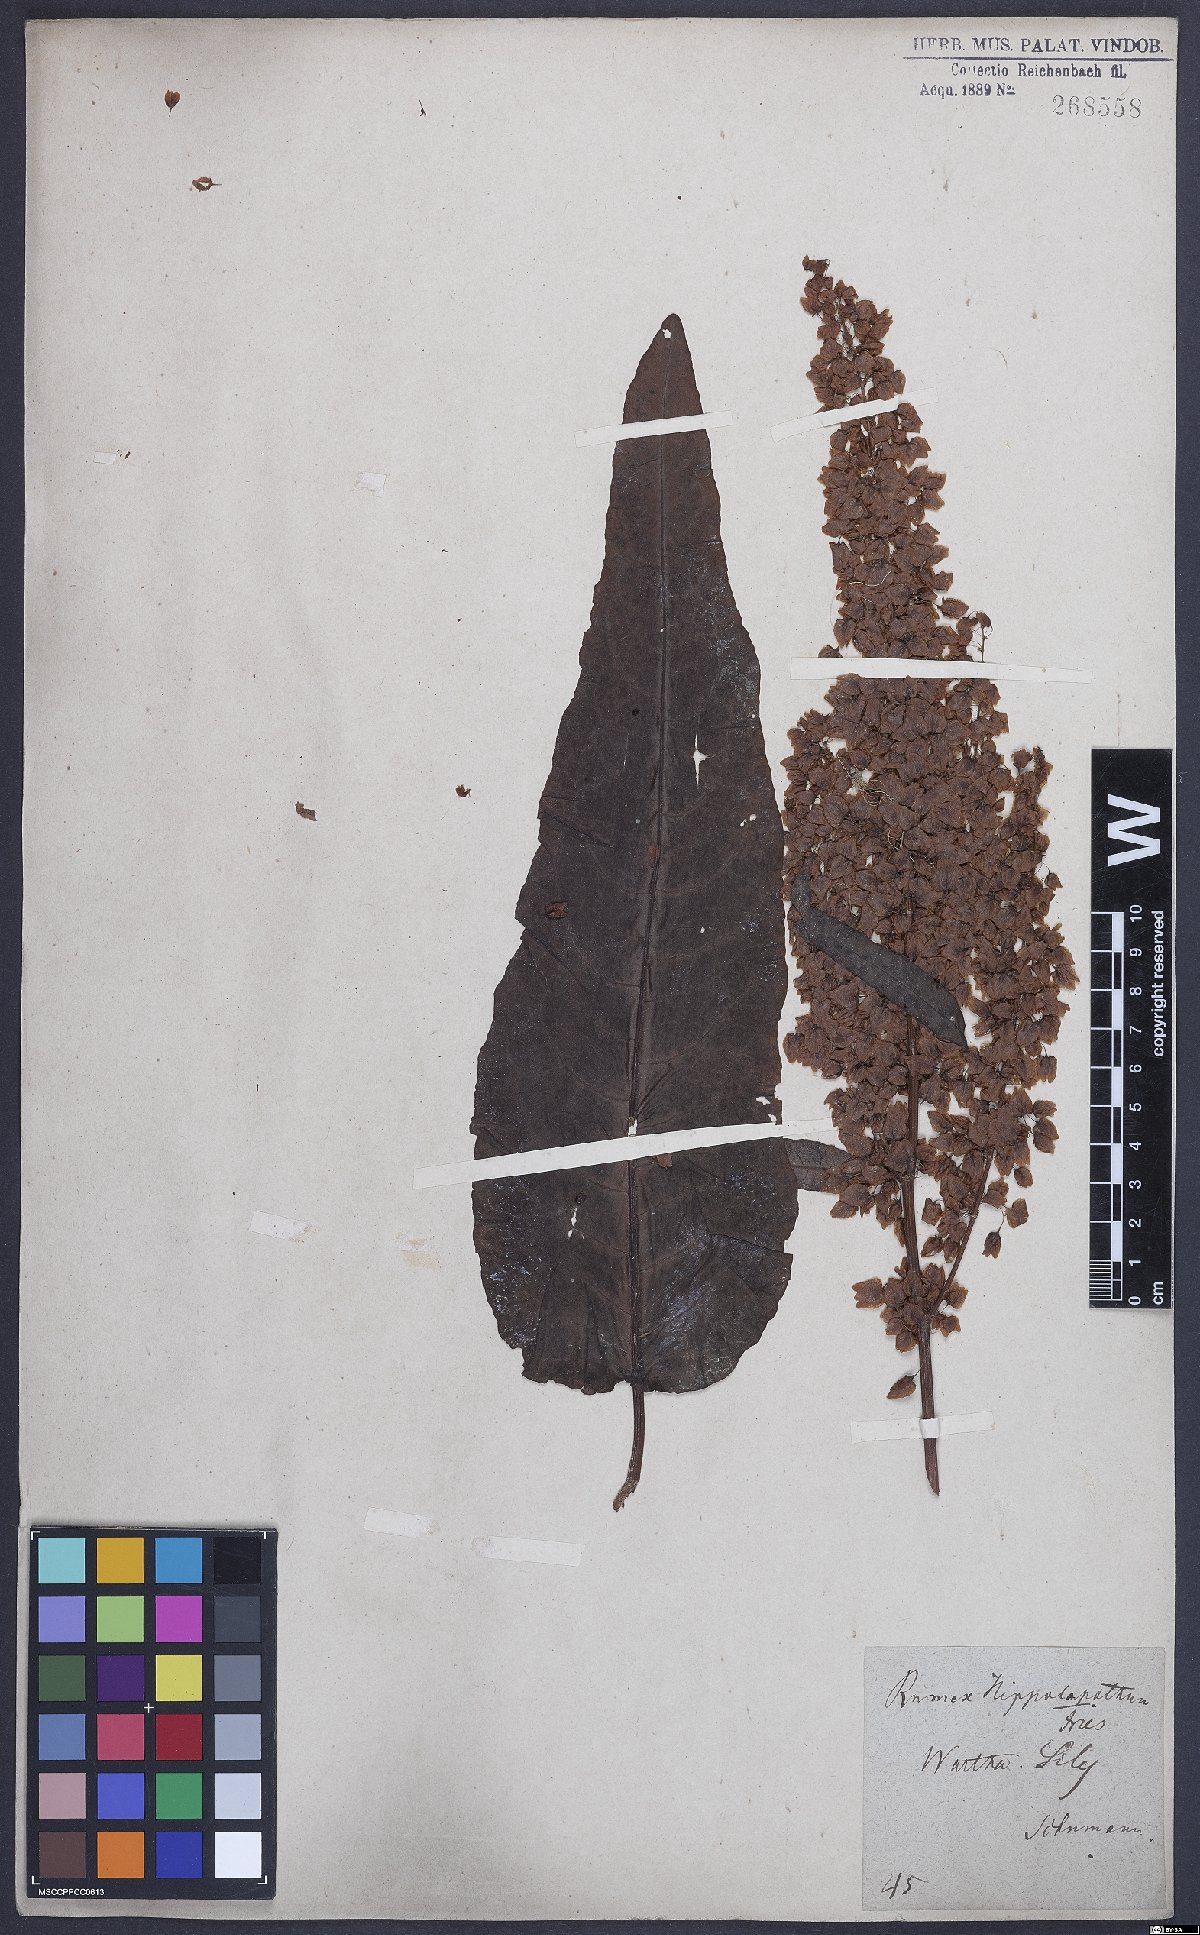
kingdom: Plantae
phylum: Tracheophyta
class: Magnoliopsida
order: Caryophyllales
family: Polygonaceae
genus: Rumex
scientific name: Rumex aquaticus
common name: Scottish dock
